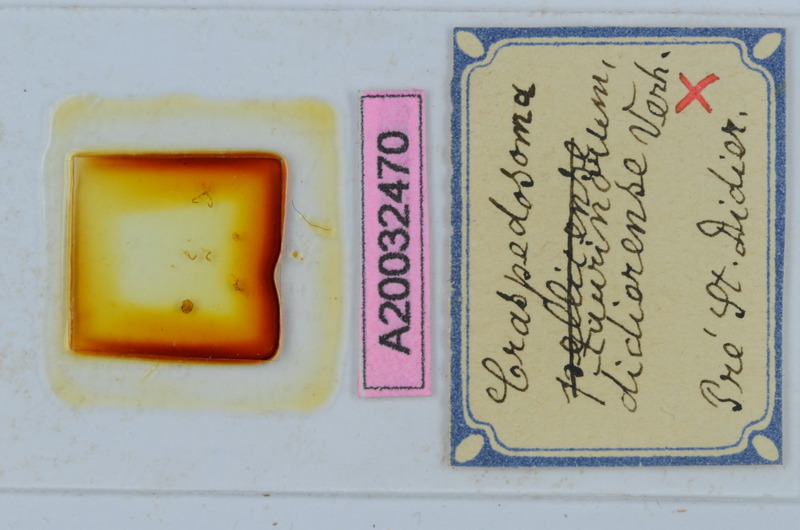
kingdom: Animalia
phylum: Arthropoda
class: Diplopoda
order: Chordeumatida
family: Craspedosomatidae
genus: Craspedosoma
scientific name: Craspedosoma taurinorum
